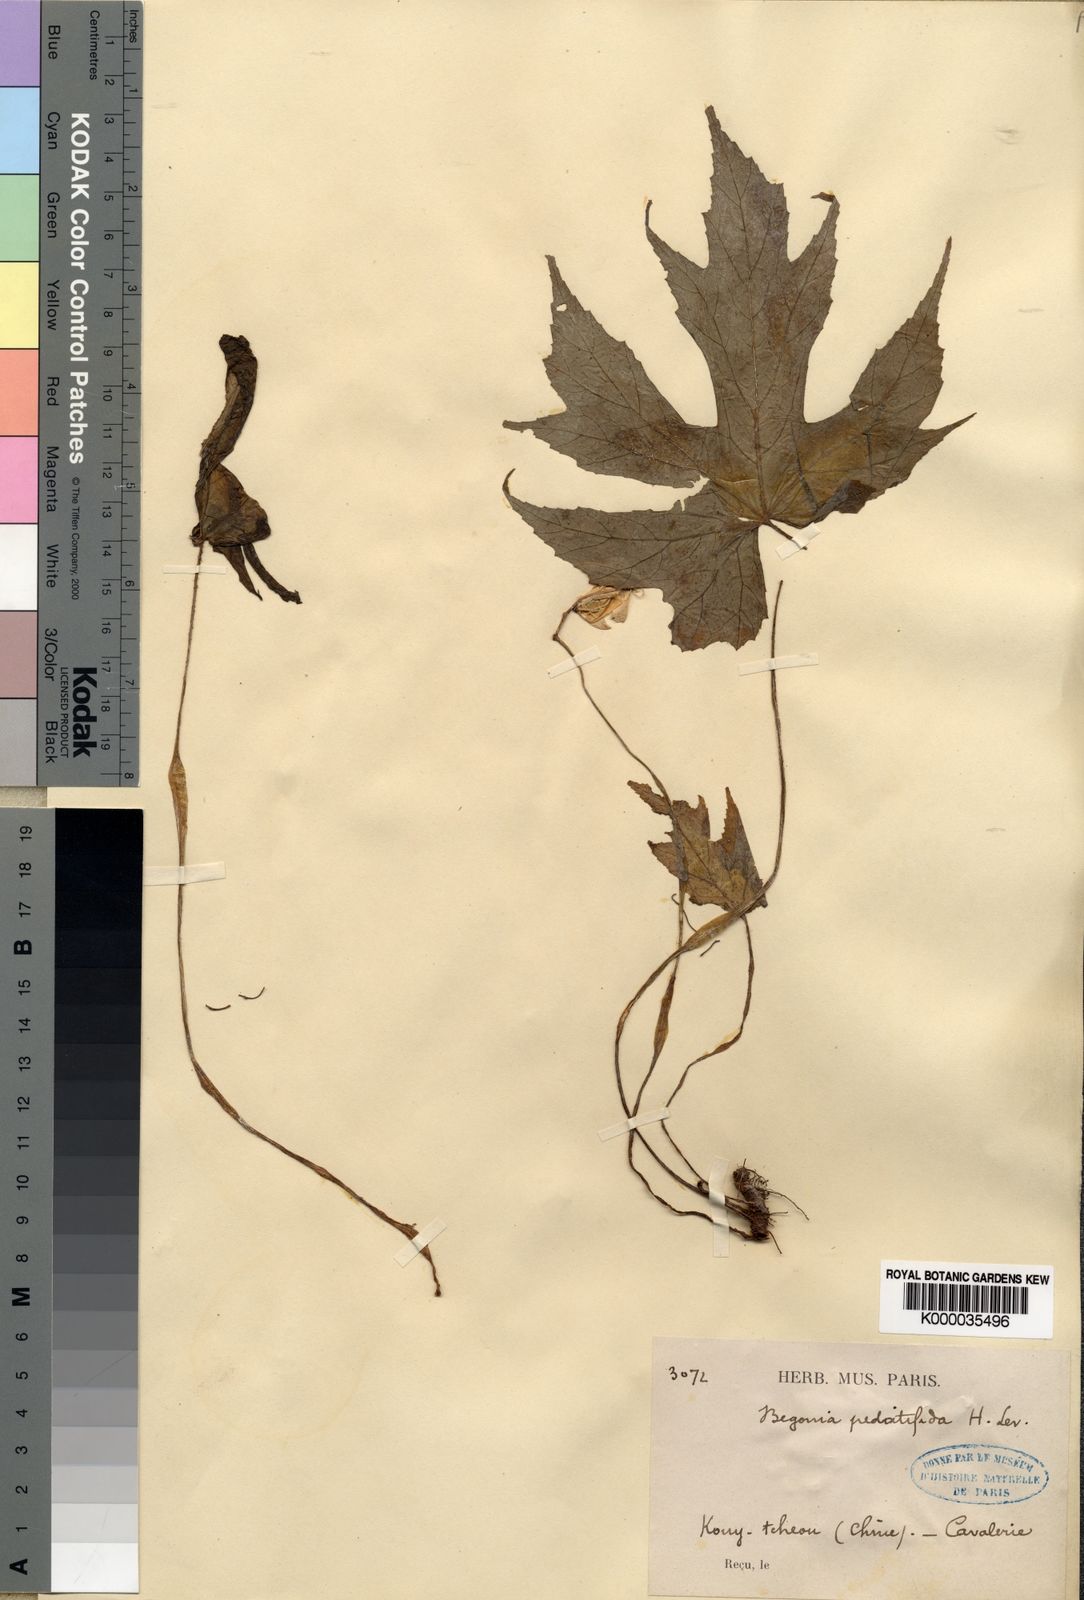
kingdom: Plantae
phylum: Tracheophyta
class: Magnoliopsida
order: Cucurbitales
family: Begoniaceae
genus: Begonia
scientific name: Begonia pedatifida
